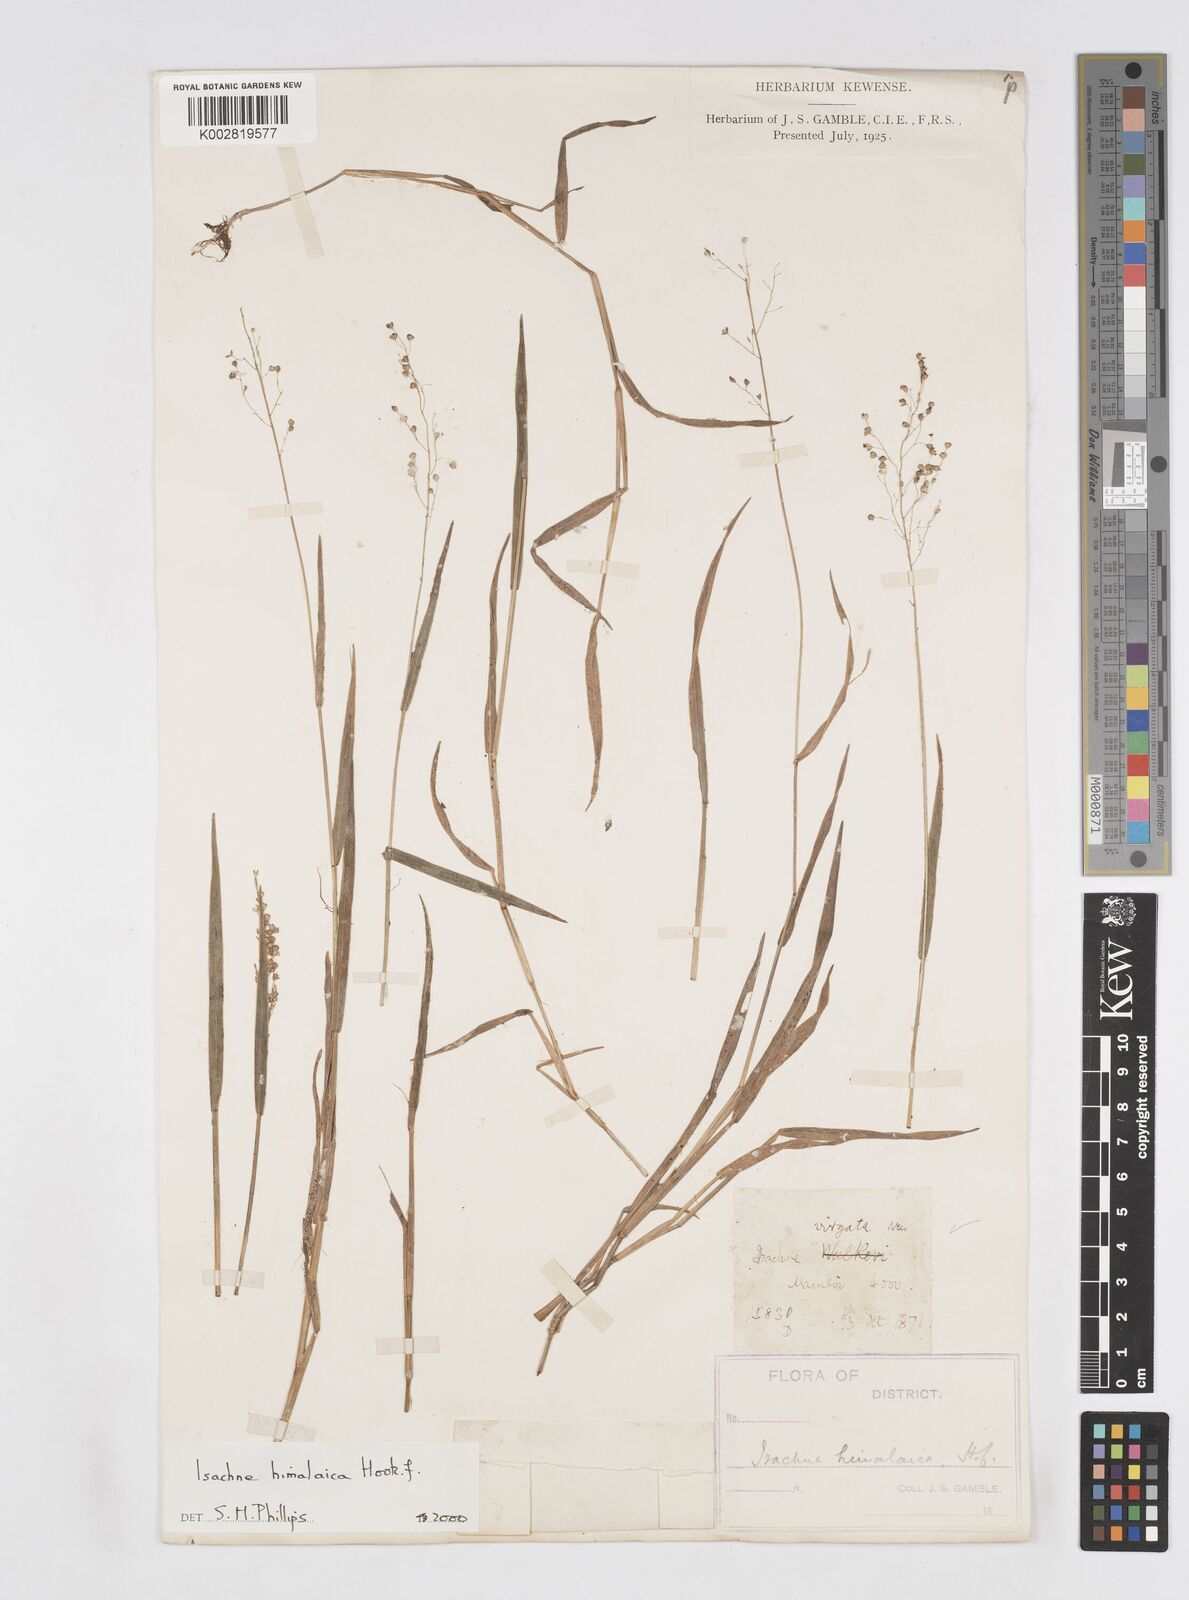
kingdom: Plantae
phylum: Tracheophyta
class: Liliopsida
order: Poales
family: Poaceae
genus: Isachne
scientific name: Isachne himalaica
